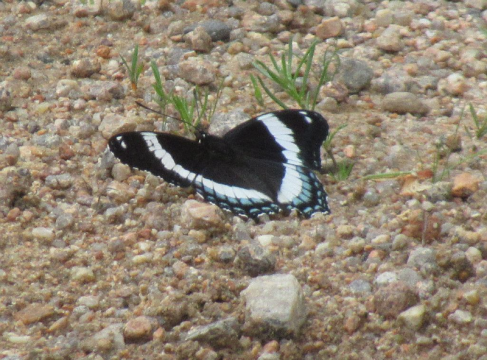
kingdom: Animalia
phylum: Arthropoda
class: Insecta
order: Lepidoptera
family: Nymphalidae
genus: Limenitis
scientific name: Limenitis arthemis
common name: Red-spotted Admiral
